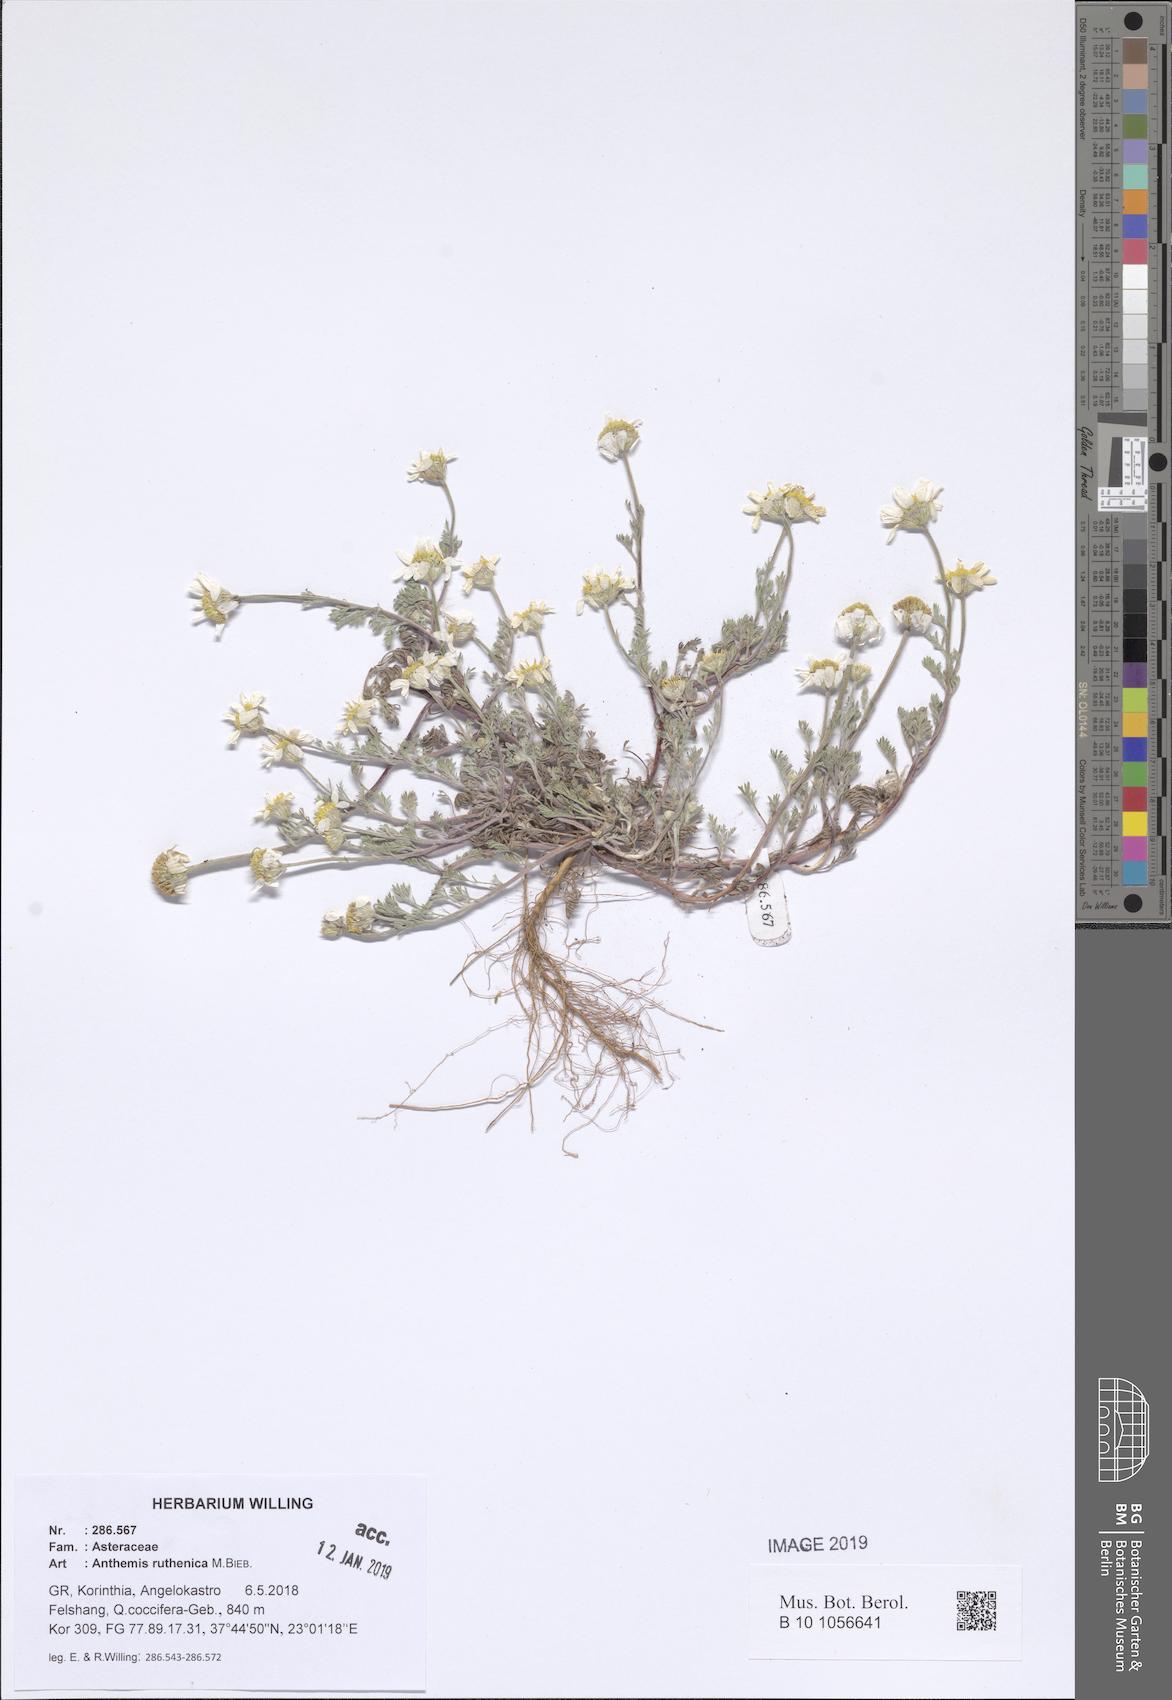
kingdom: Plantae
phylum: Tracheophyta
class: Magnoliopsida
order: Asterales
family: Asteraceae
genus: Anthemis
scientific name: Anthemis ruthenica
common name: Eastern chamomile
